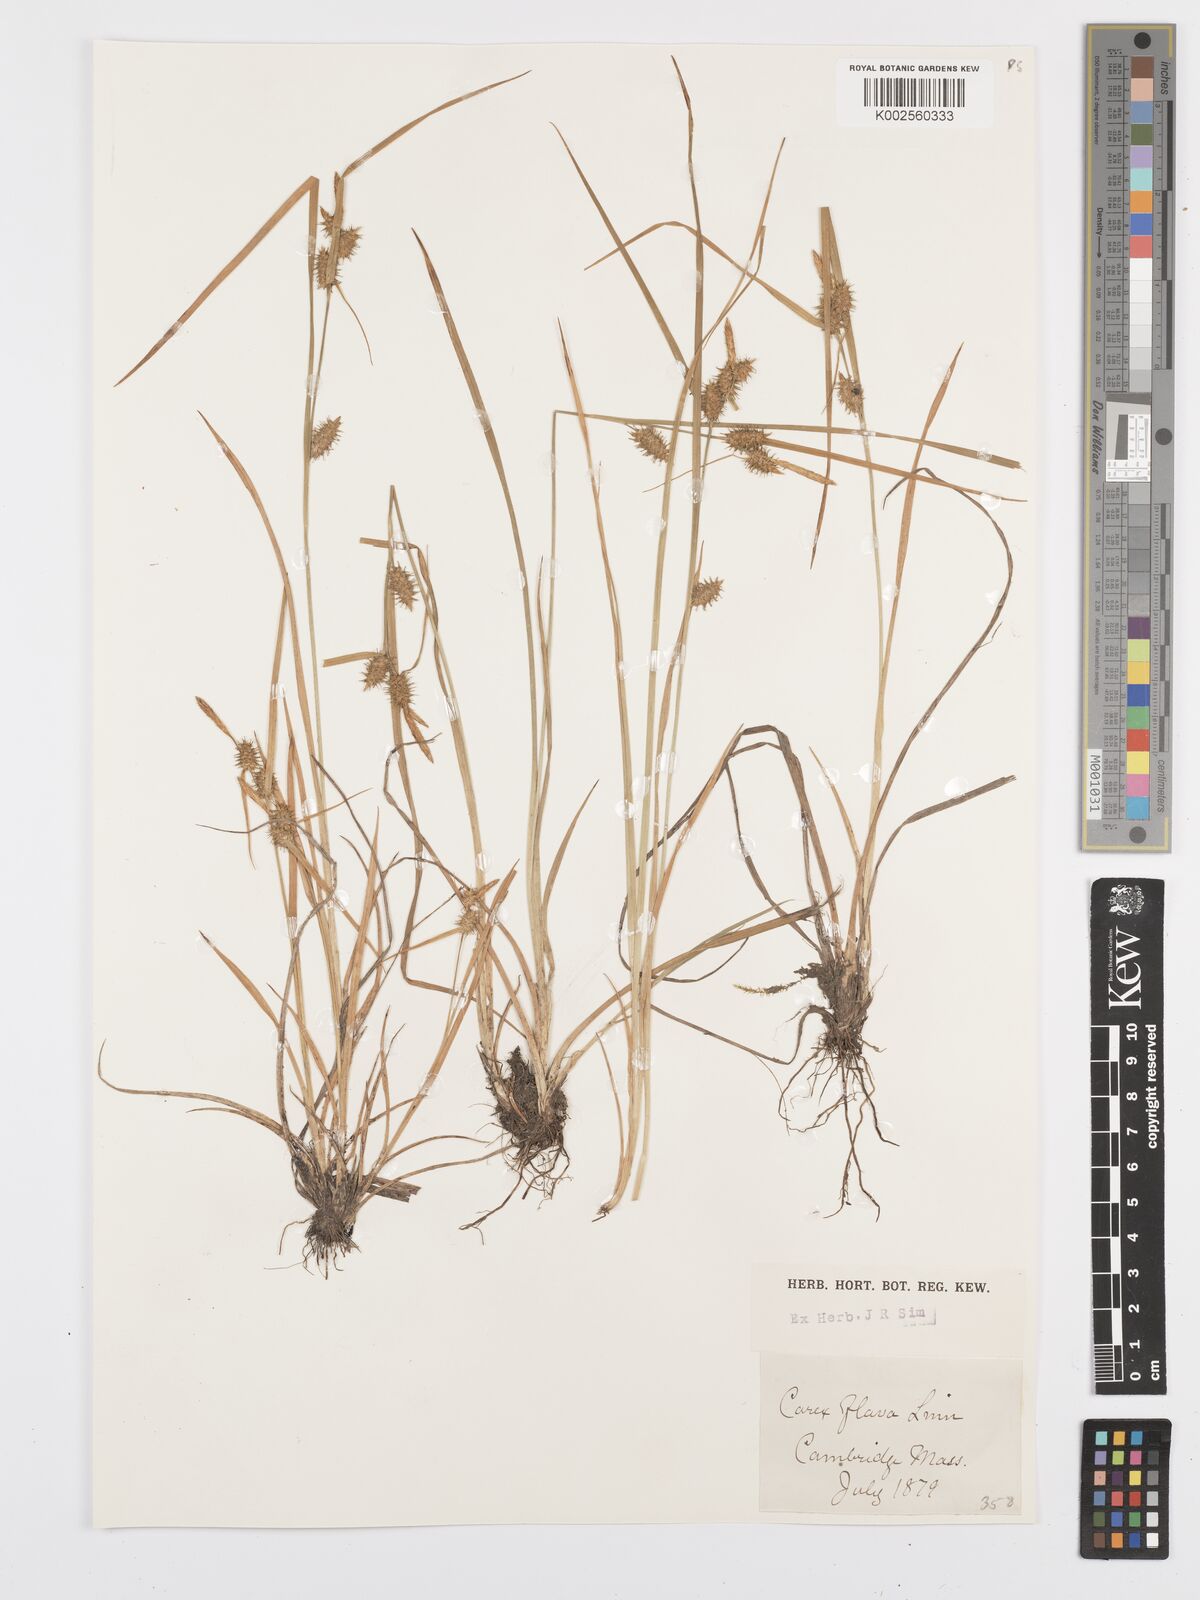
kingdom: Plantae
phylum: Tracheophyta
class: Liliopsida
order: Poales
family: Cyperaceae
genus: Carex
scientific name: Carex flava
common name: Large yellow-sedge
